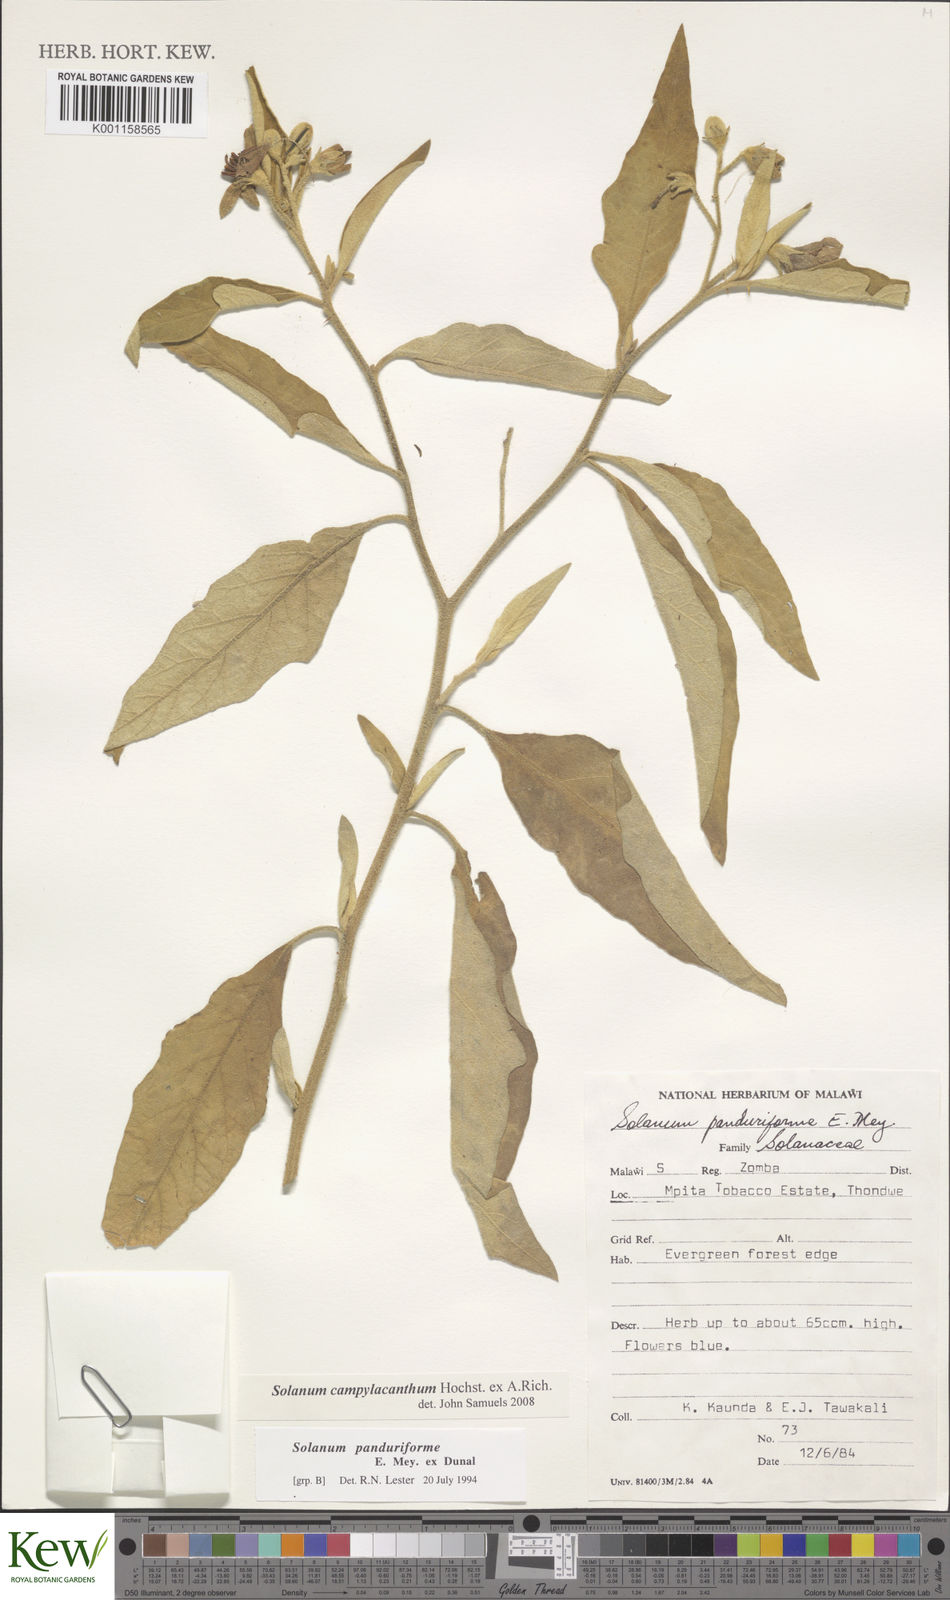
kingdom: Plantae
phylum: Tracheophyta
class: Magnoliopsida
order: Solanales
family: Solanaceae
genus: Solanum
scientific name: Solanum campylacanthum
